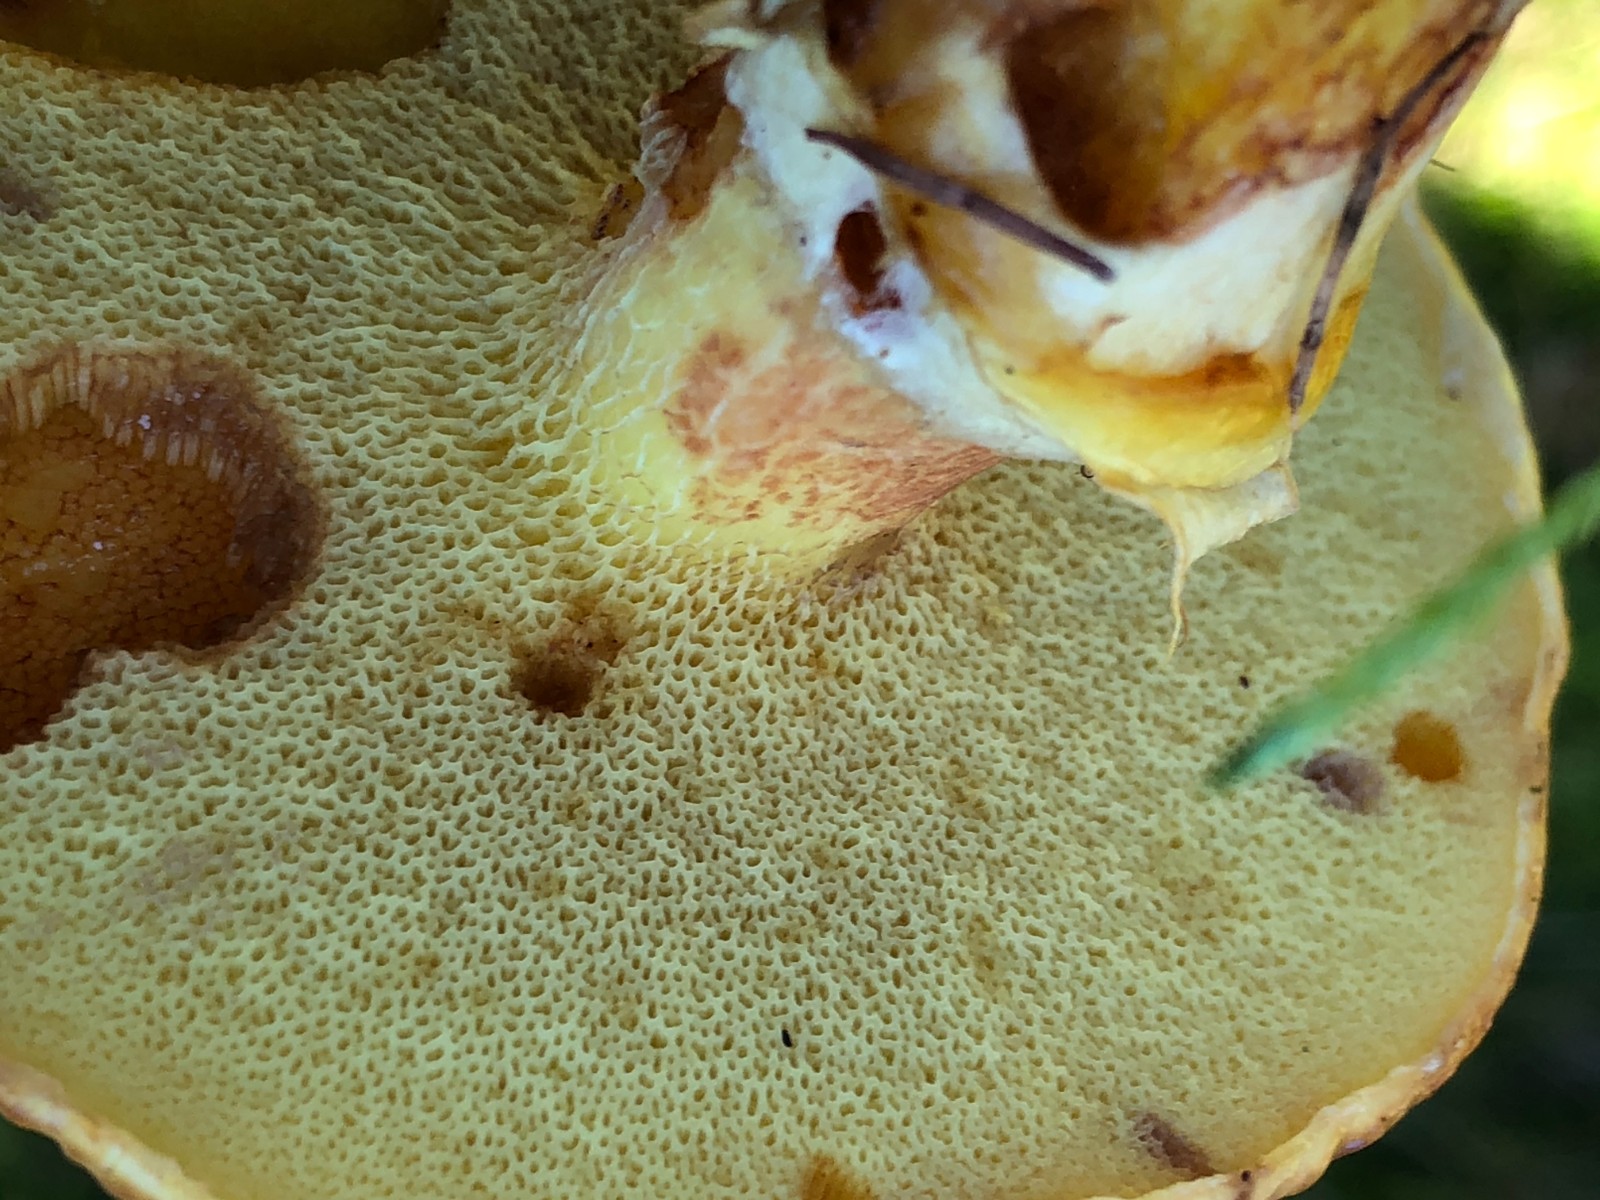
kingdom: Fungi
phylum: Basidiomycota
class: Agaricomycetes
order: Boletales
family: Suillaceae
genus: Suillus
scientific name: Suillus grevillei
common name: lærke-slimrørhat
